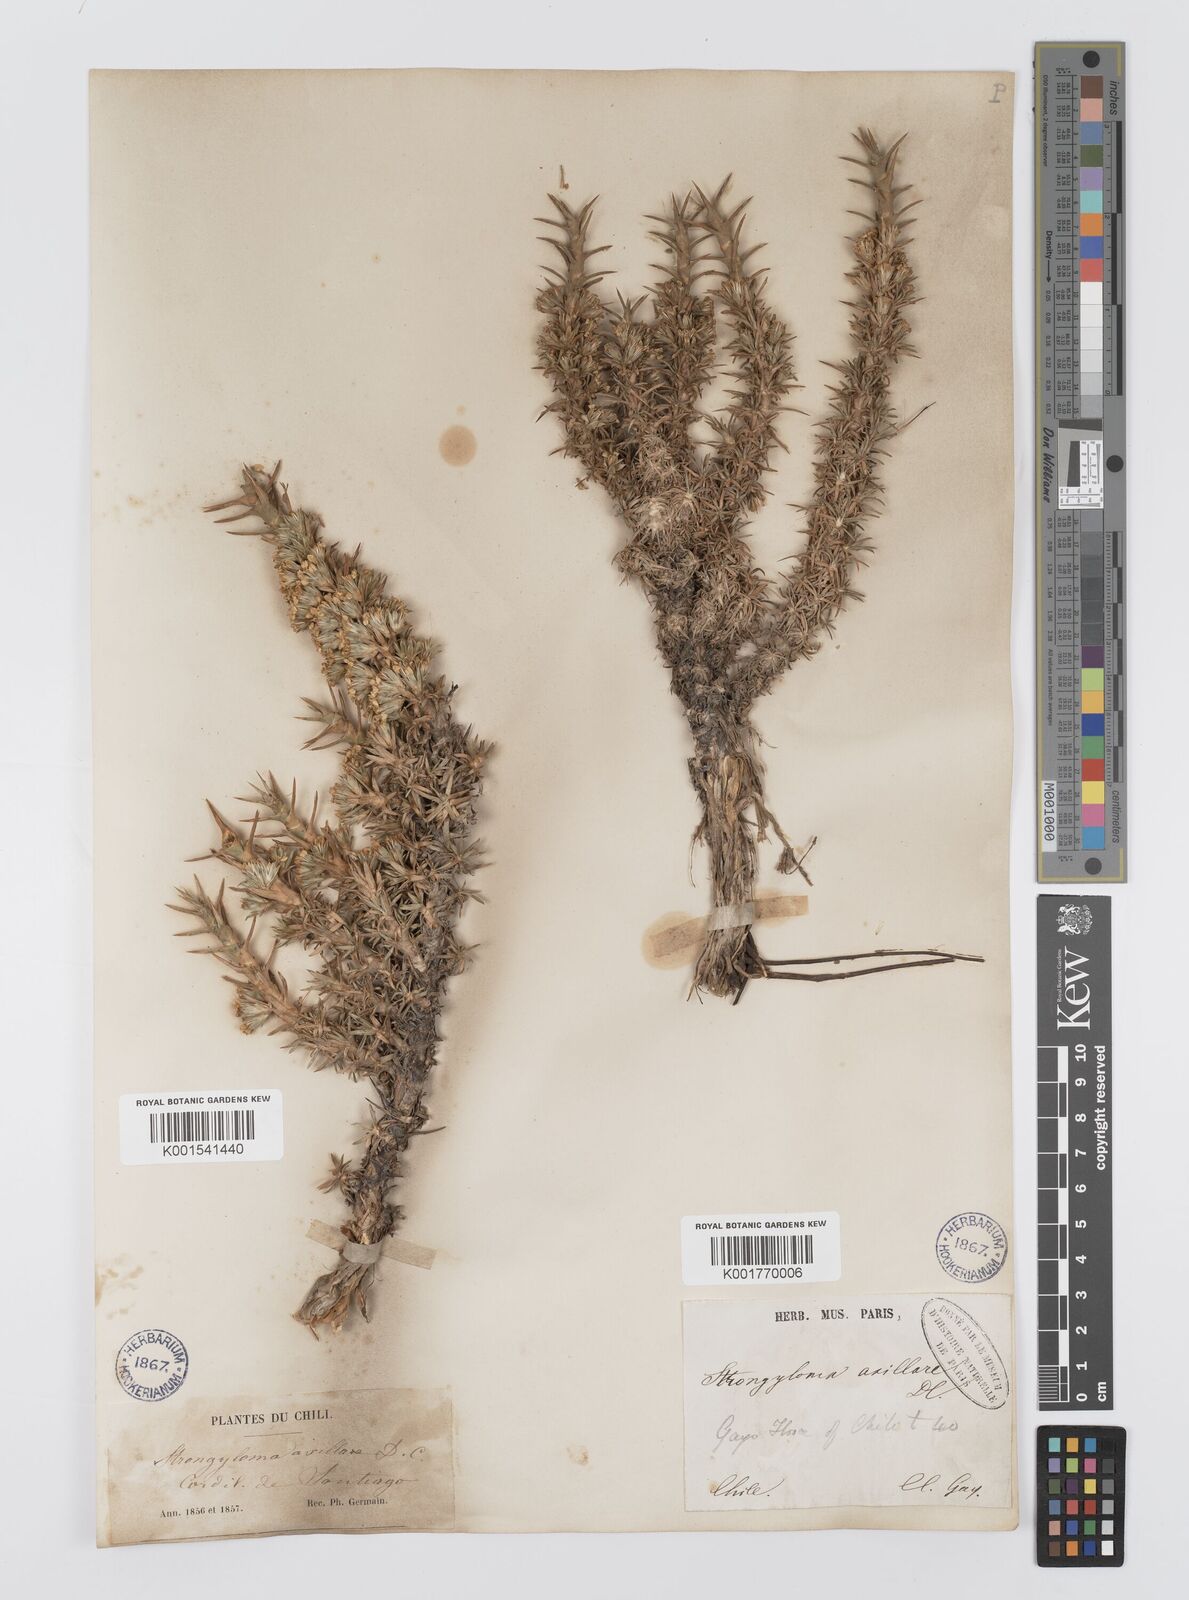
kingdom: Plantae
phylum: Tracheophyta
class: Magnoliopsida
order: Asterales
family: Asteraceae
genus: Nassauvia
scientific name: Nassauvia axillaris
